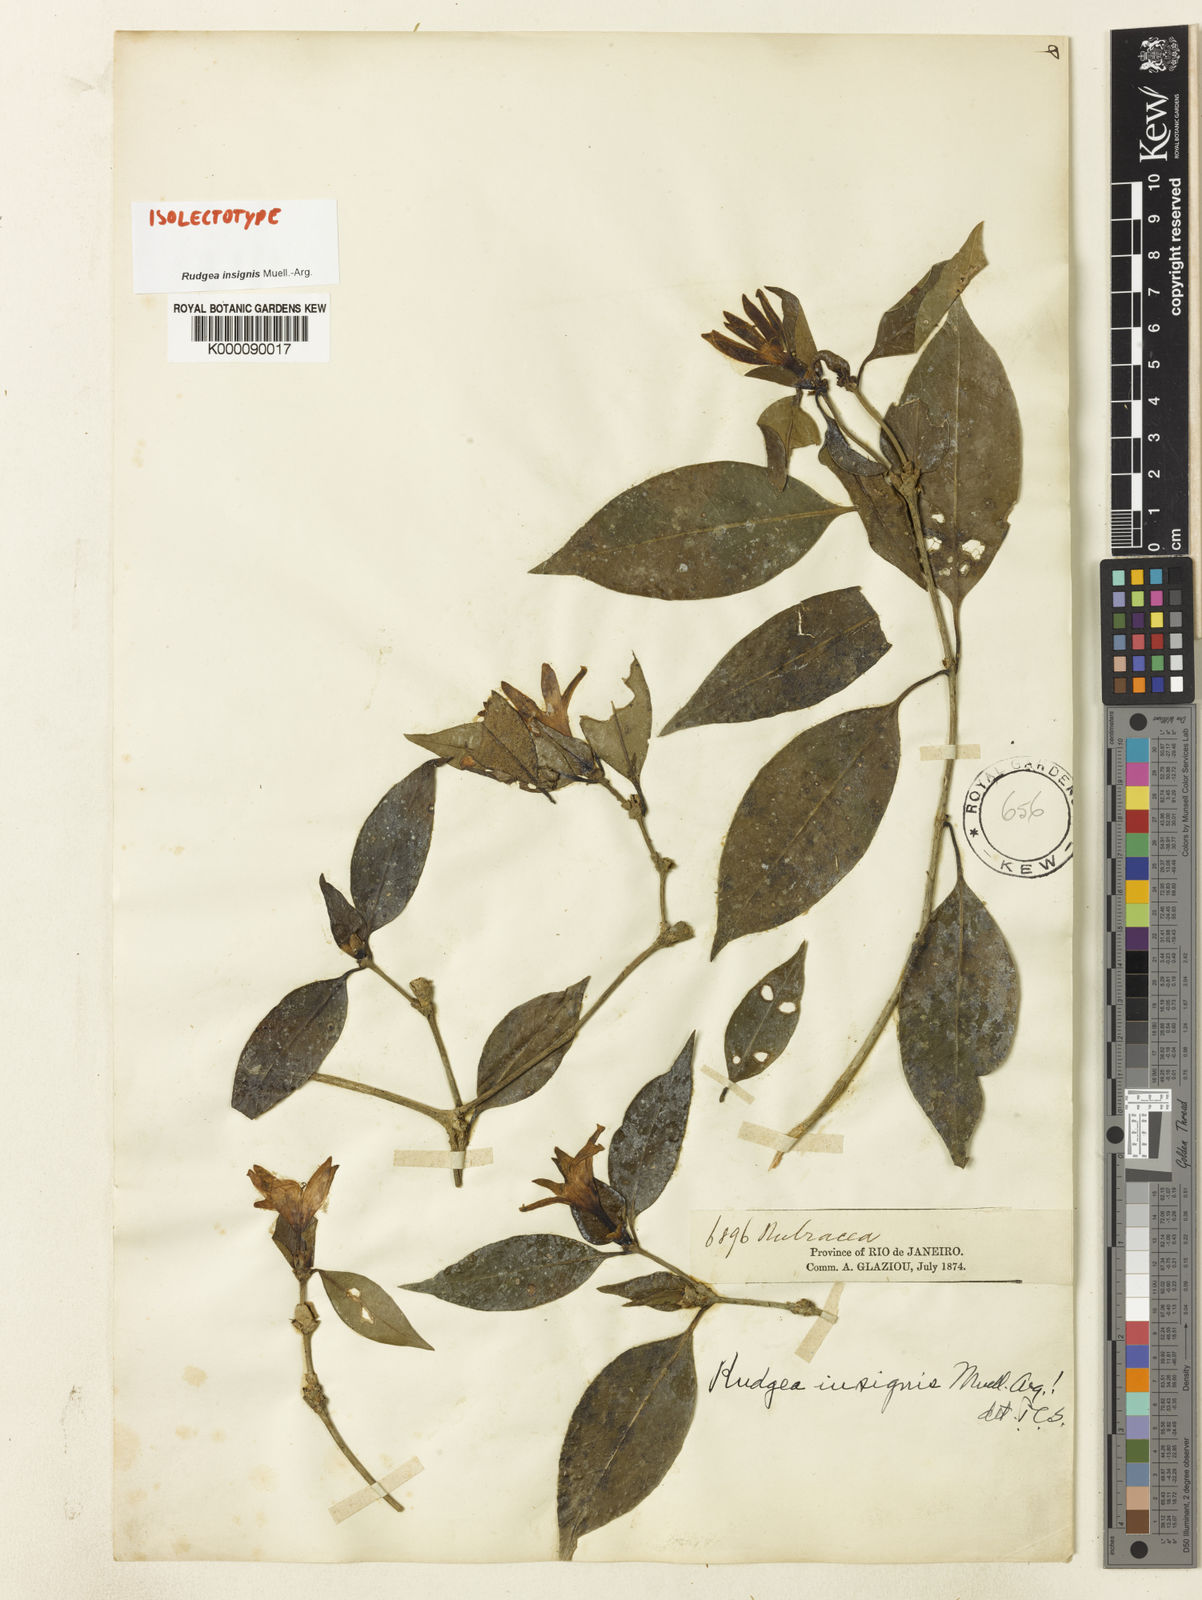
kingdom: Plantae
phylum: Tracheophyta
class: Magnoliopsida
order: Gentianales
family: Rubiaceae
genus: Rudgea
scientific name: Rudgea
